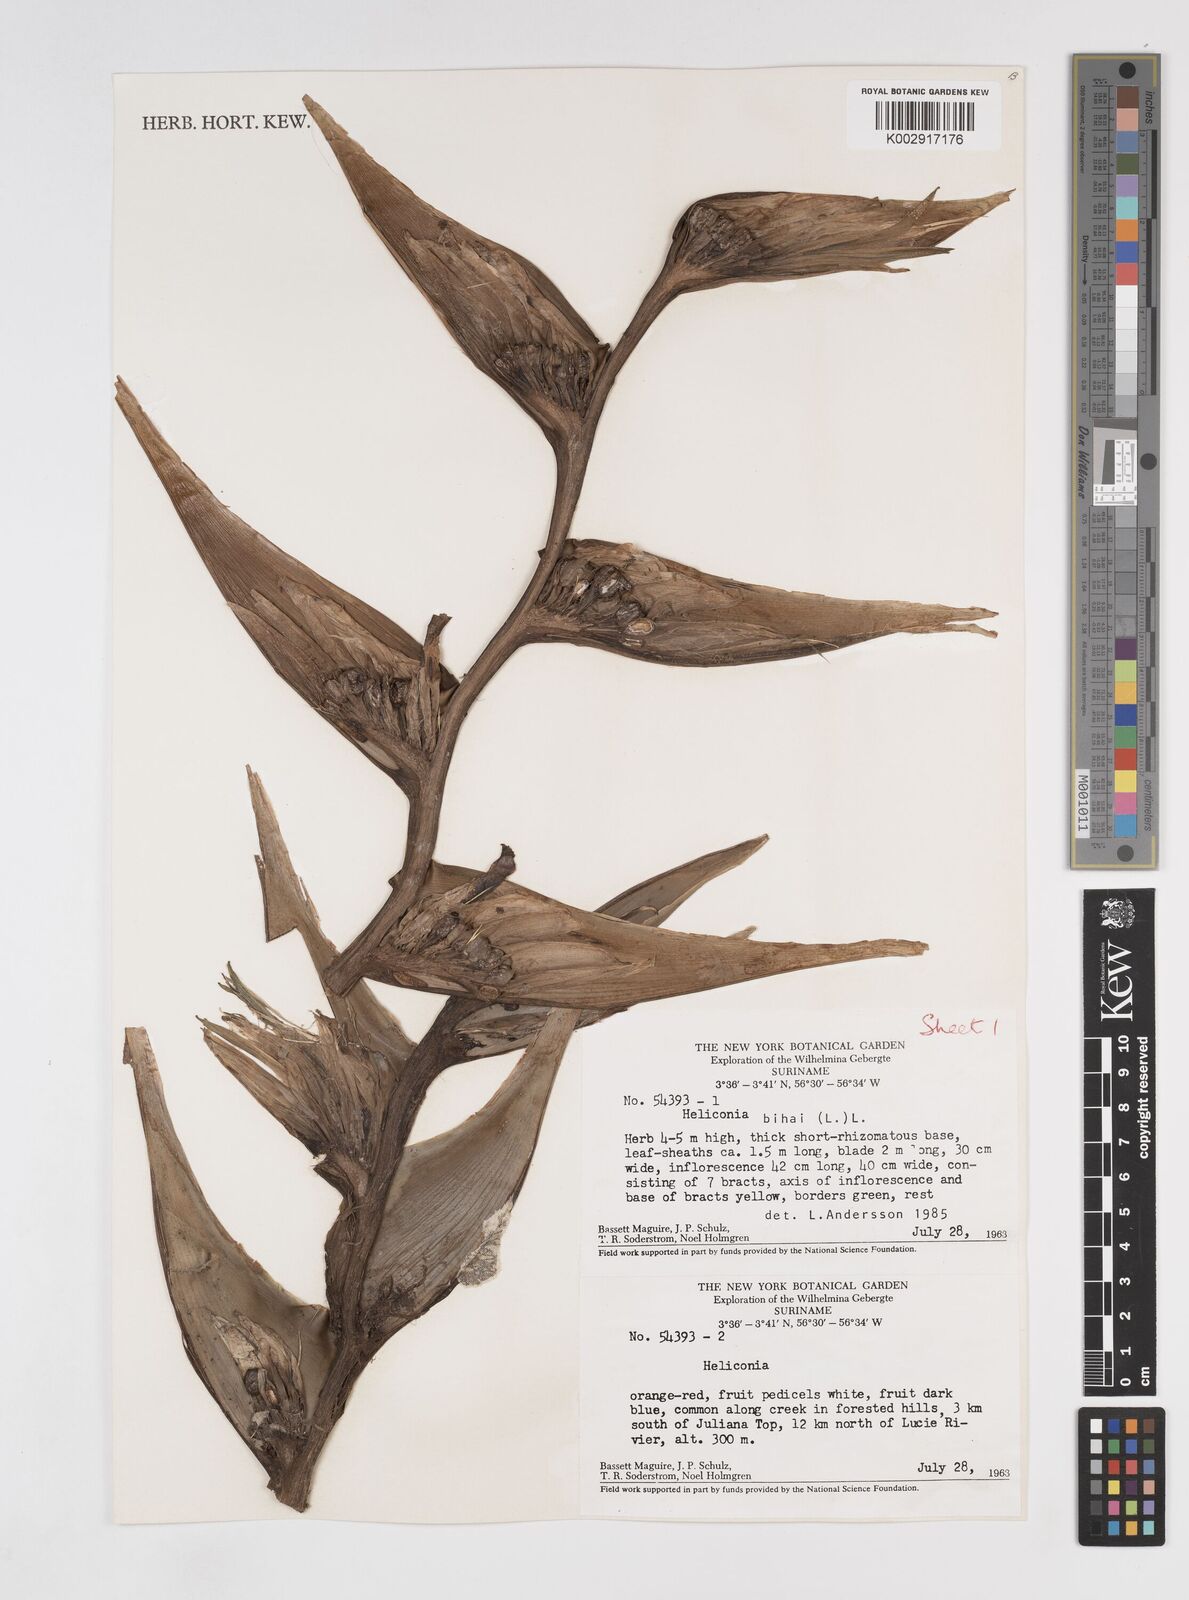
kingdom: Plantae
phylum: Tracheophyta
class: Liliopsida
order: Zingiberales
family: Heliconiaceae
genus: Heliconia
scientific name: Heliconia bihai
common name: Macaw flower
